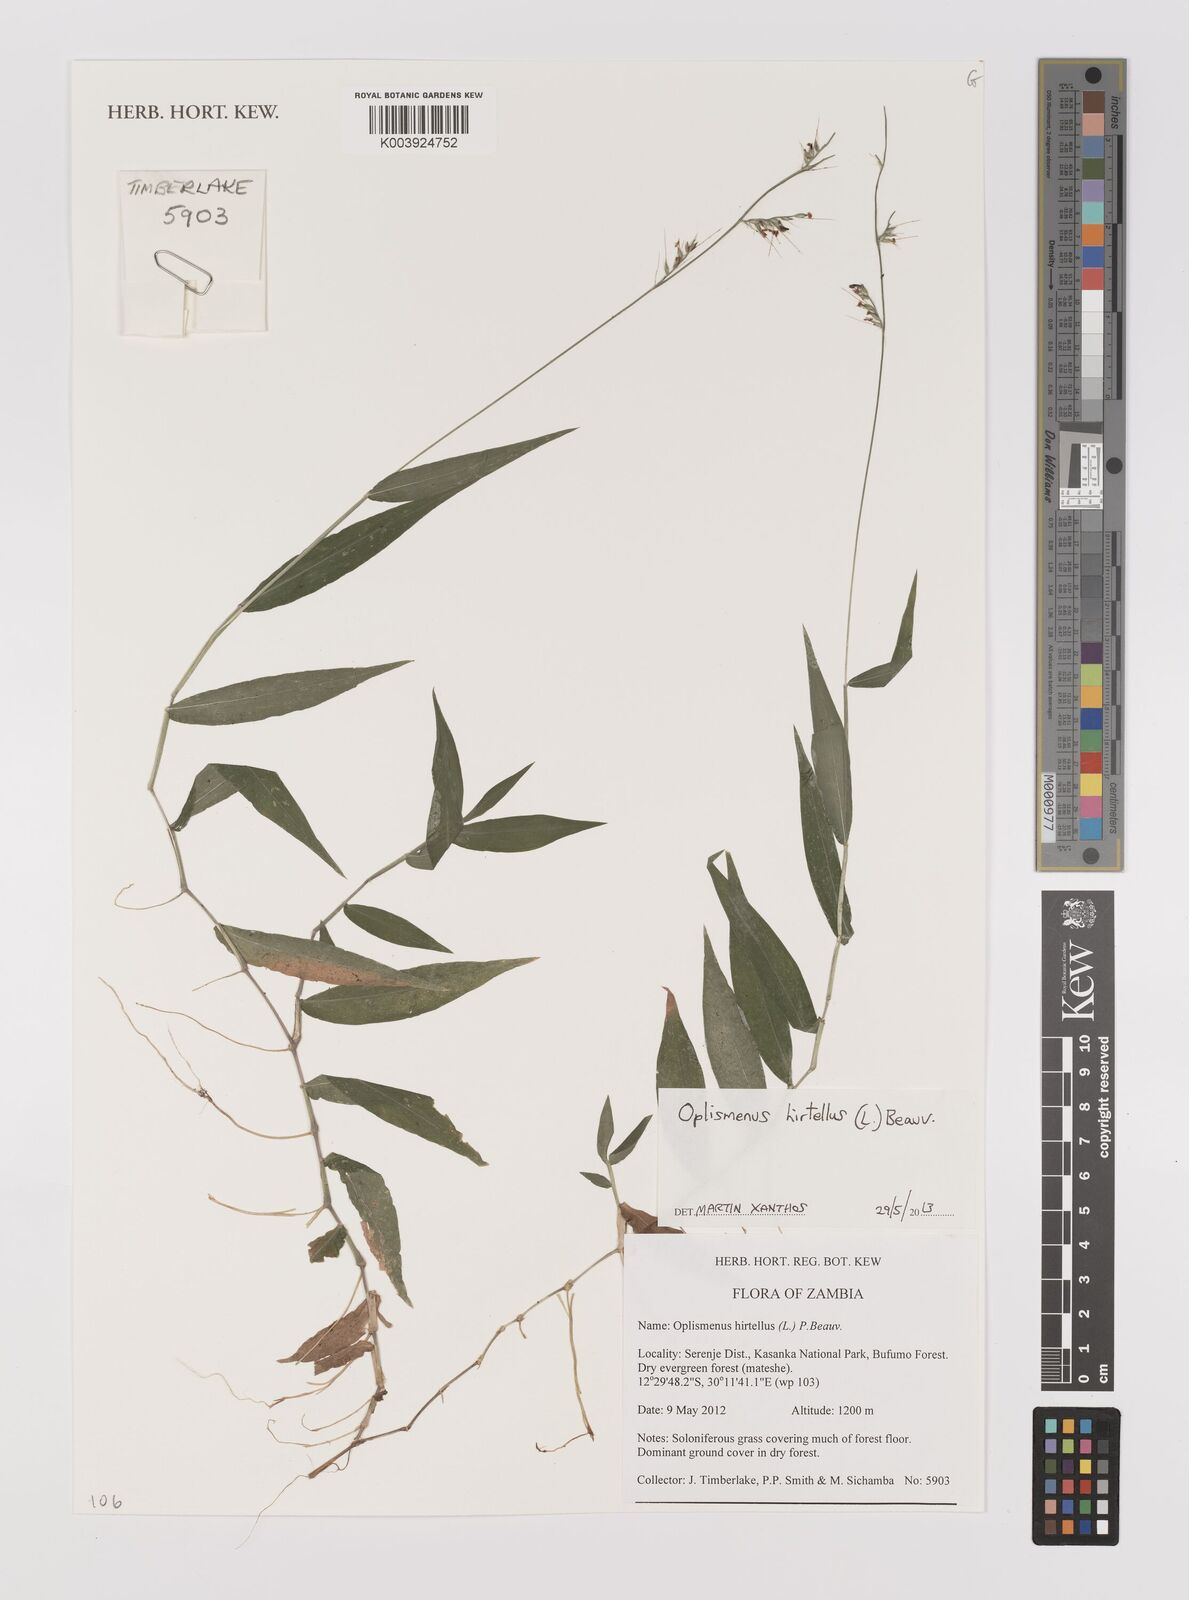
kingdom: Plantae
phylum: Tracheophyta
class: Liliopsida
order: Poales
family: Poaceae
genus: Oplismenus
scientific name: Oplismenus hirtellus
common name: Basketgrass
